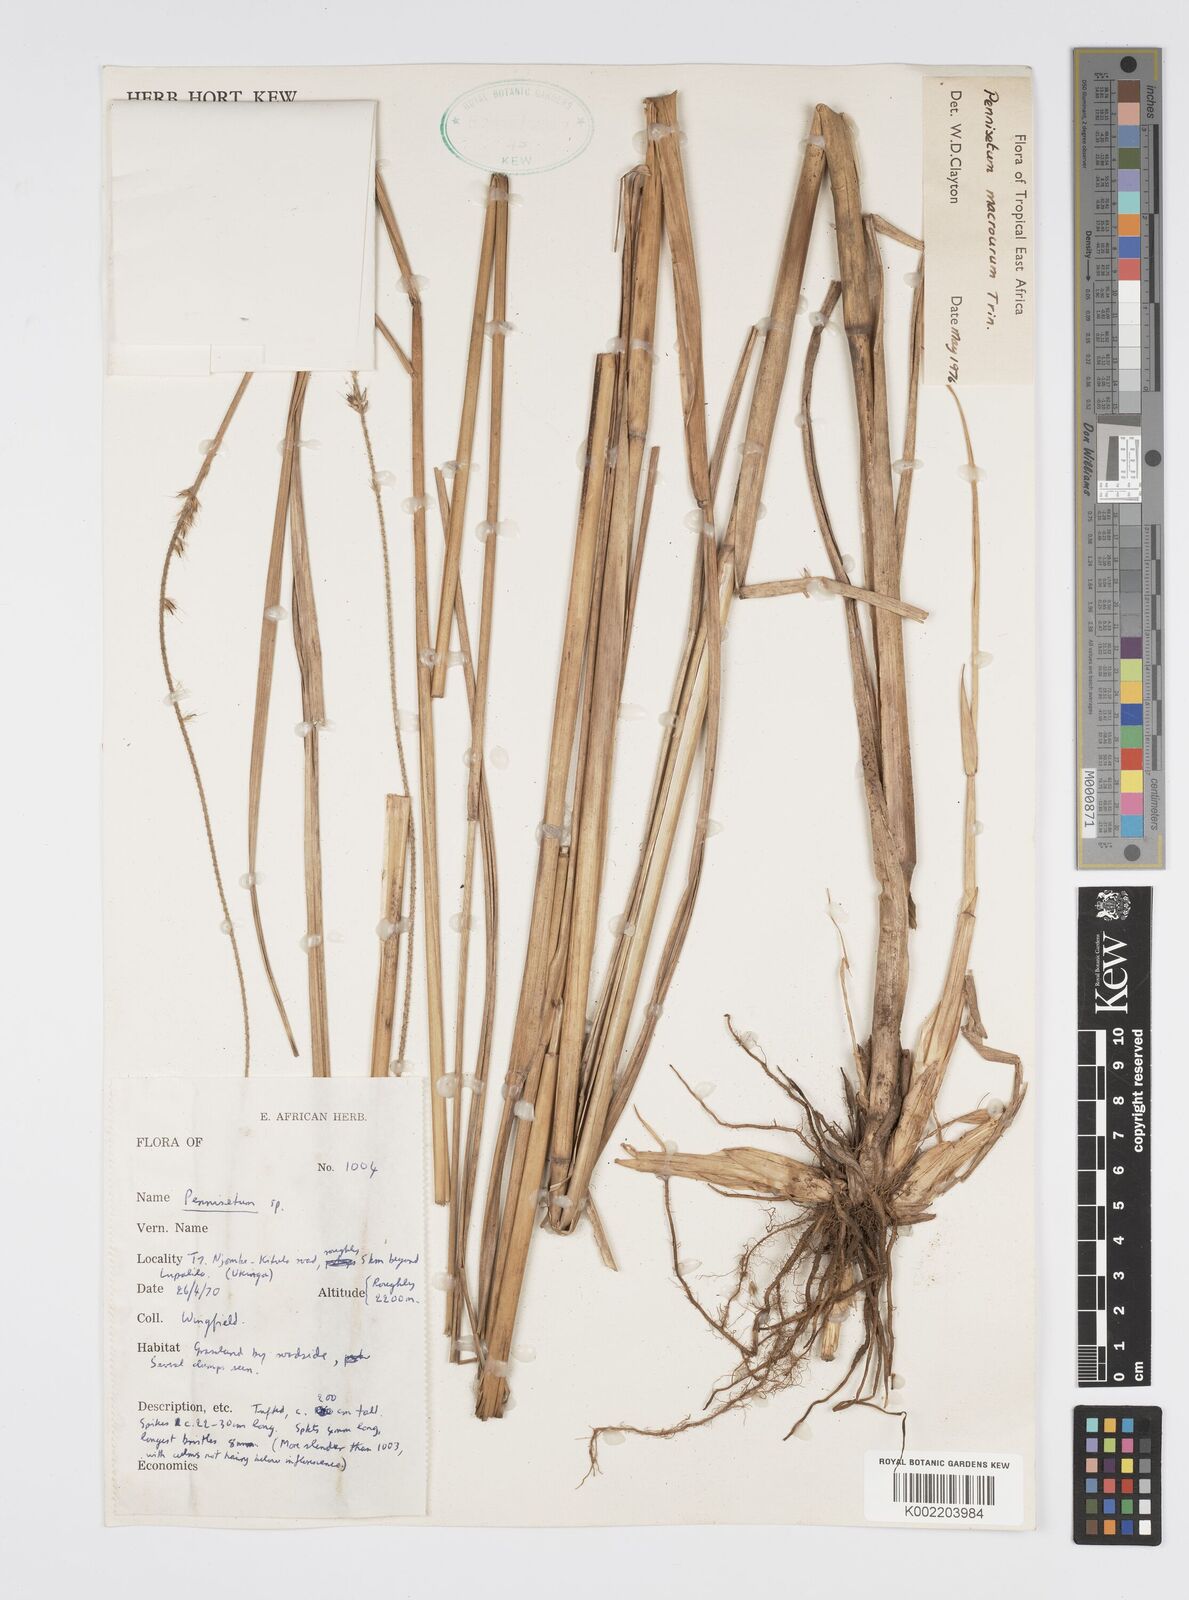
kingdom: Plantae
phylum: Tracheophyta
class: Liliopsida
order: Poales
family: Poaceae
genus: Cenchrus
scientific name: Cenchrus caudatus
